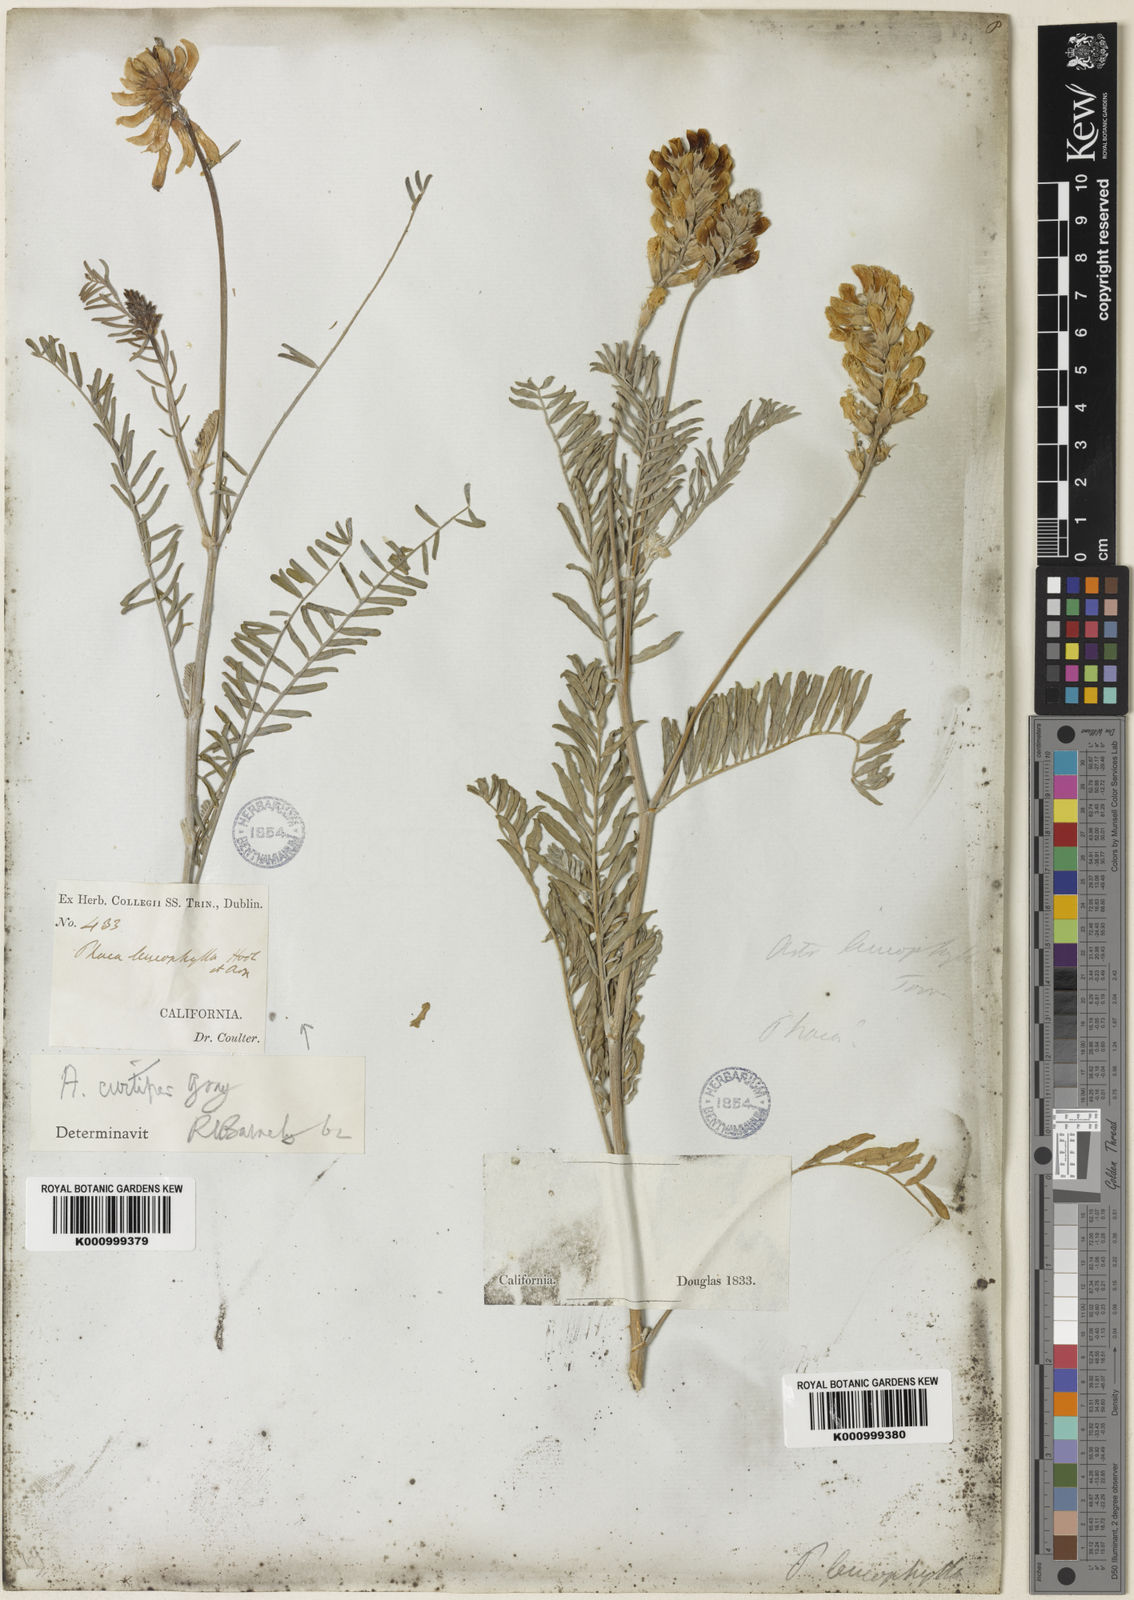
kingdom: Plantae
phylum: Tracheophyta
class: Magnoliopsida
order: Fabales
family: Fabaceae
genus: Astragalus
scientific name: Astragalus asymmetricus
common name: Horse locoweed
